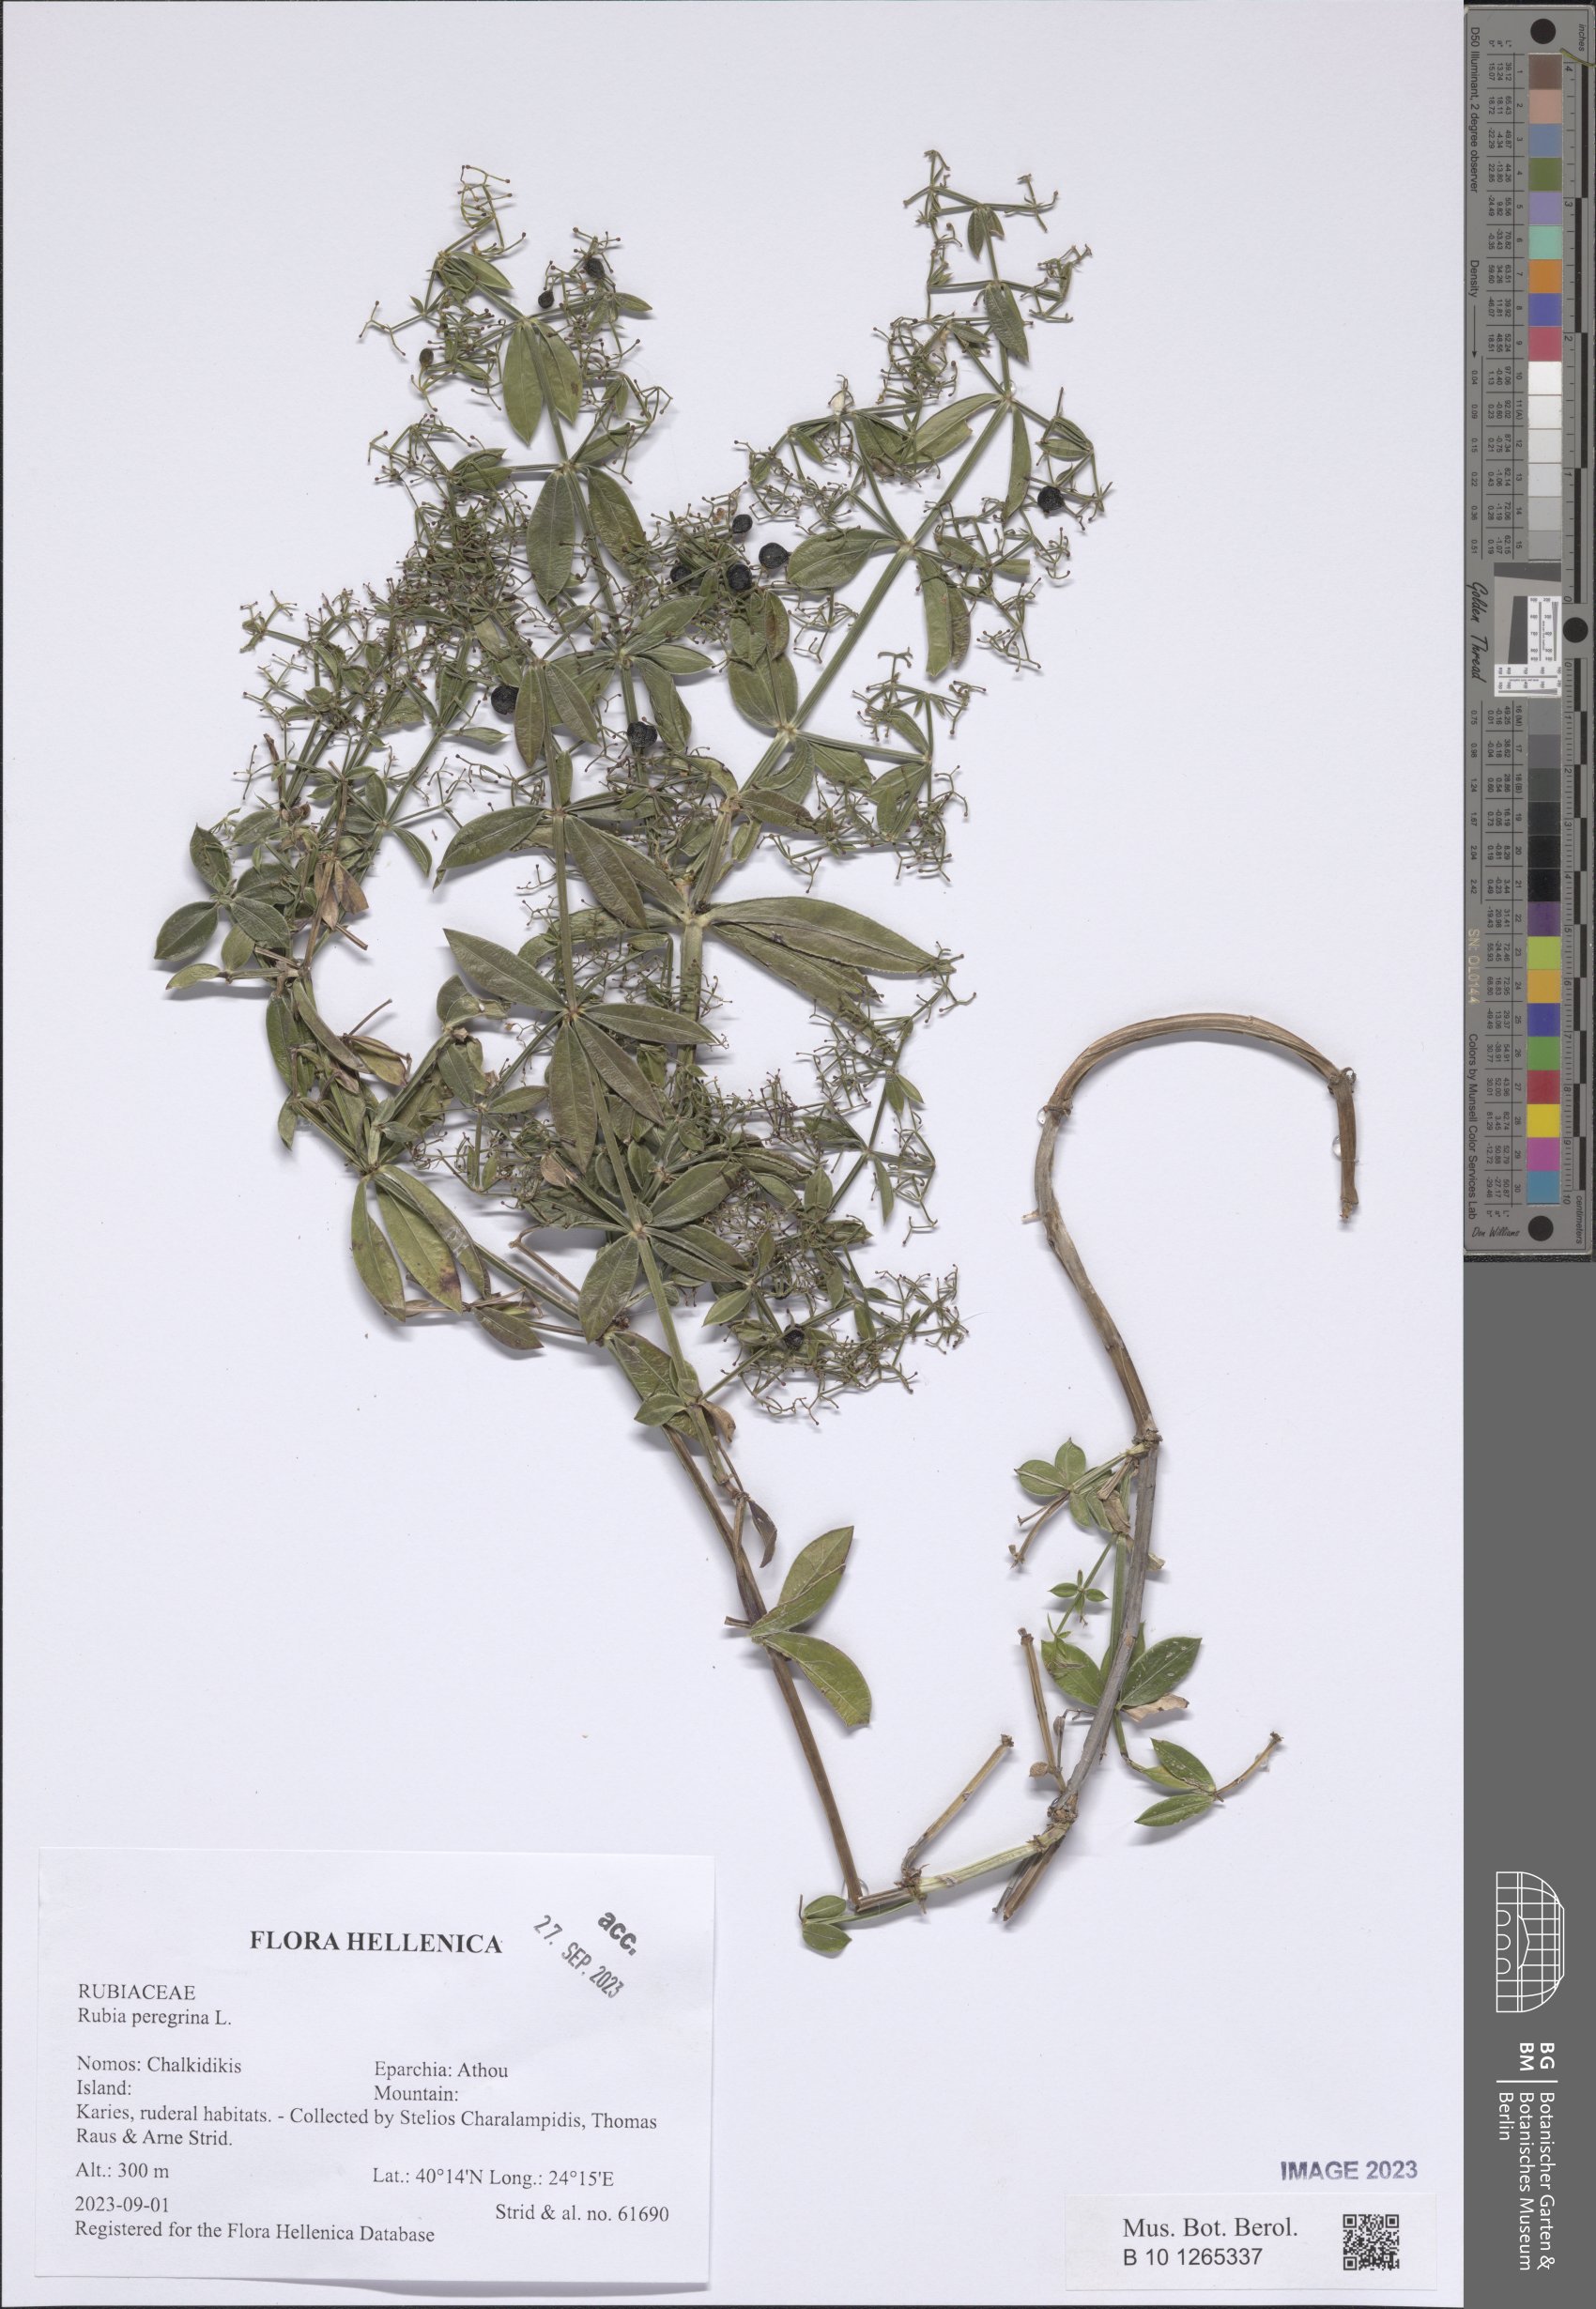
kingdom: Plantae
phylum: Tracheophyta
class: Magnoliopsida
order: Gentianales
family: Rubiaceae
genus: Rubia
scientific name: Rubia peregrina
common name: Wild madder
